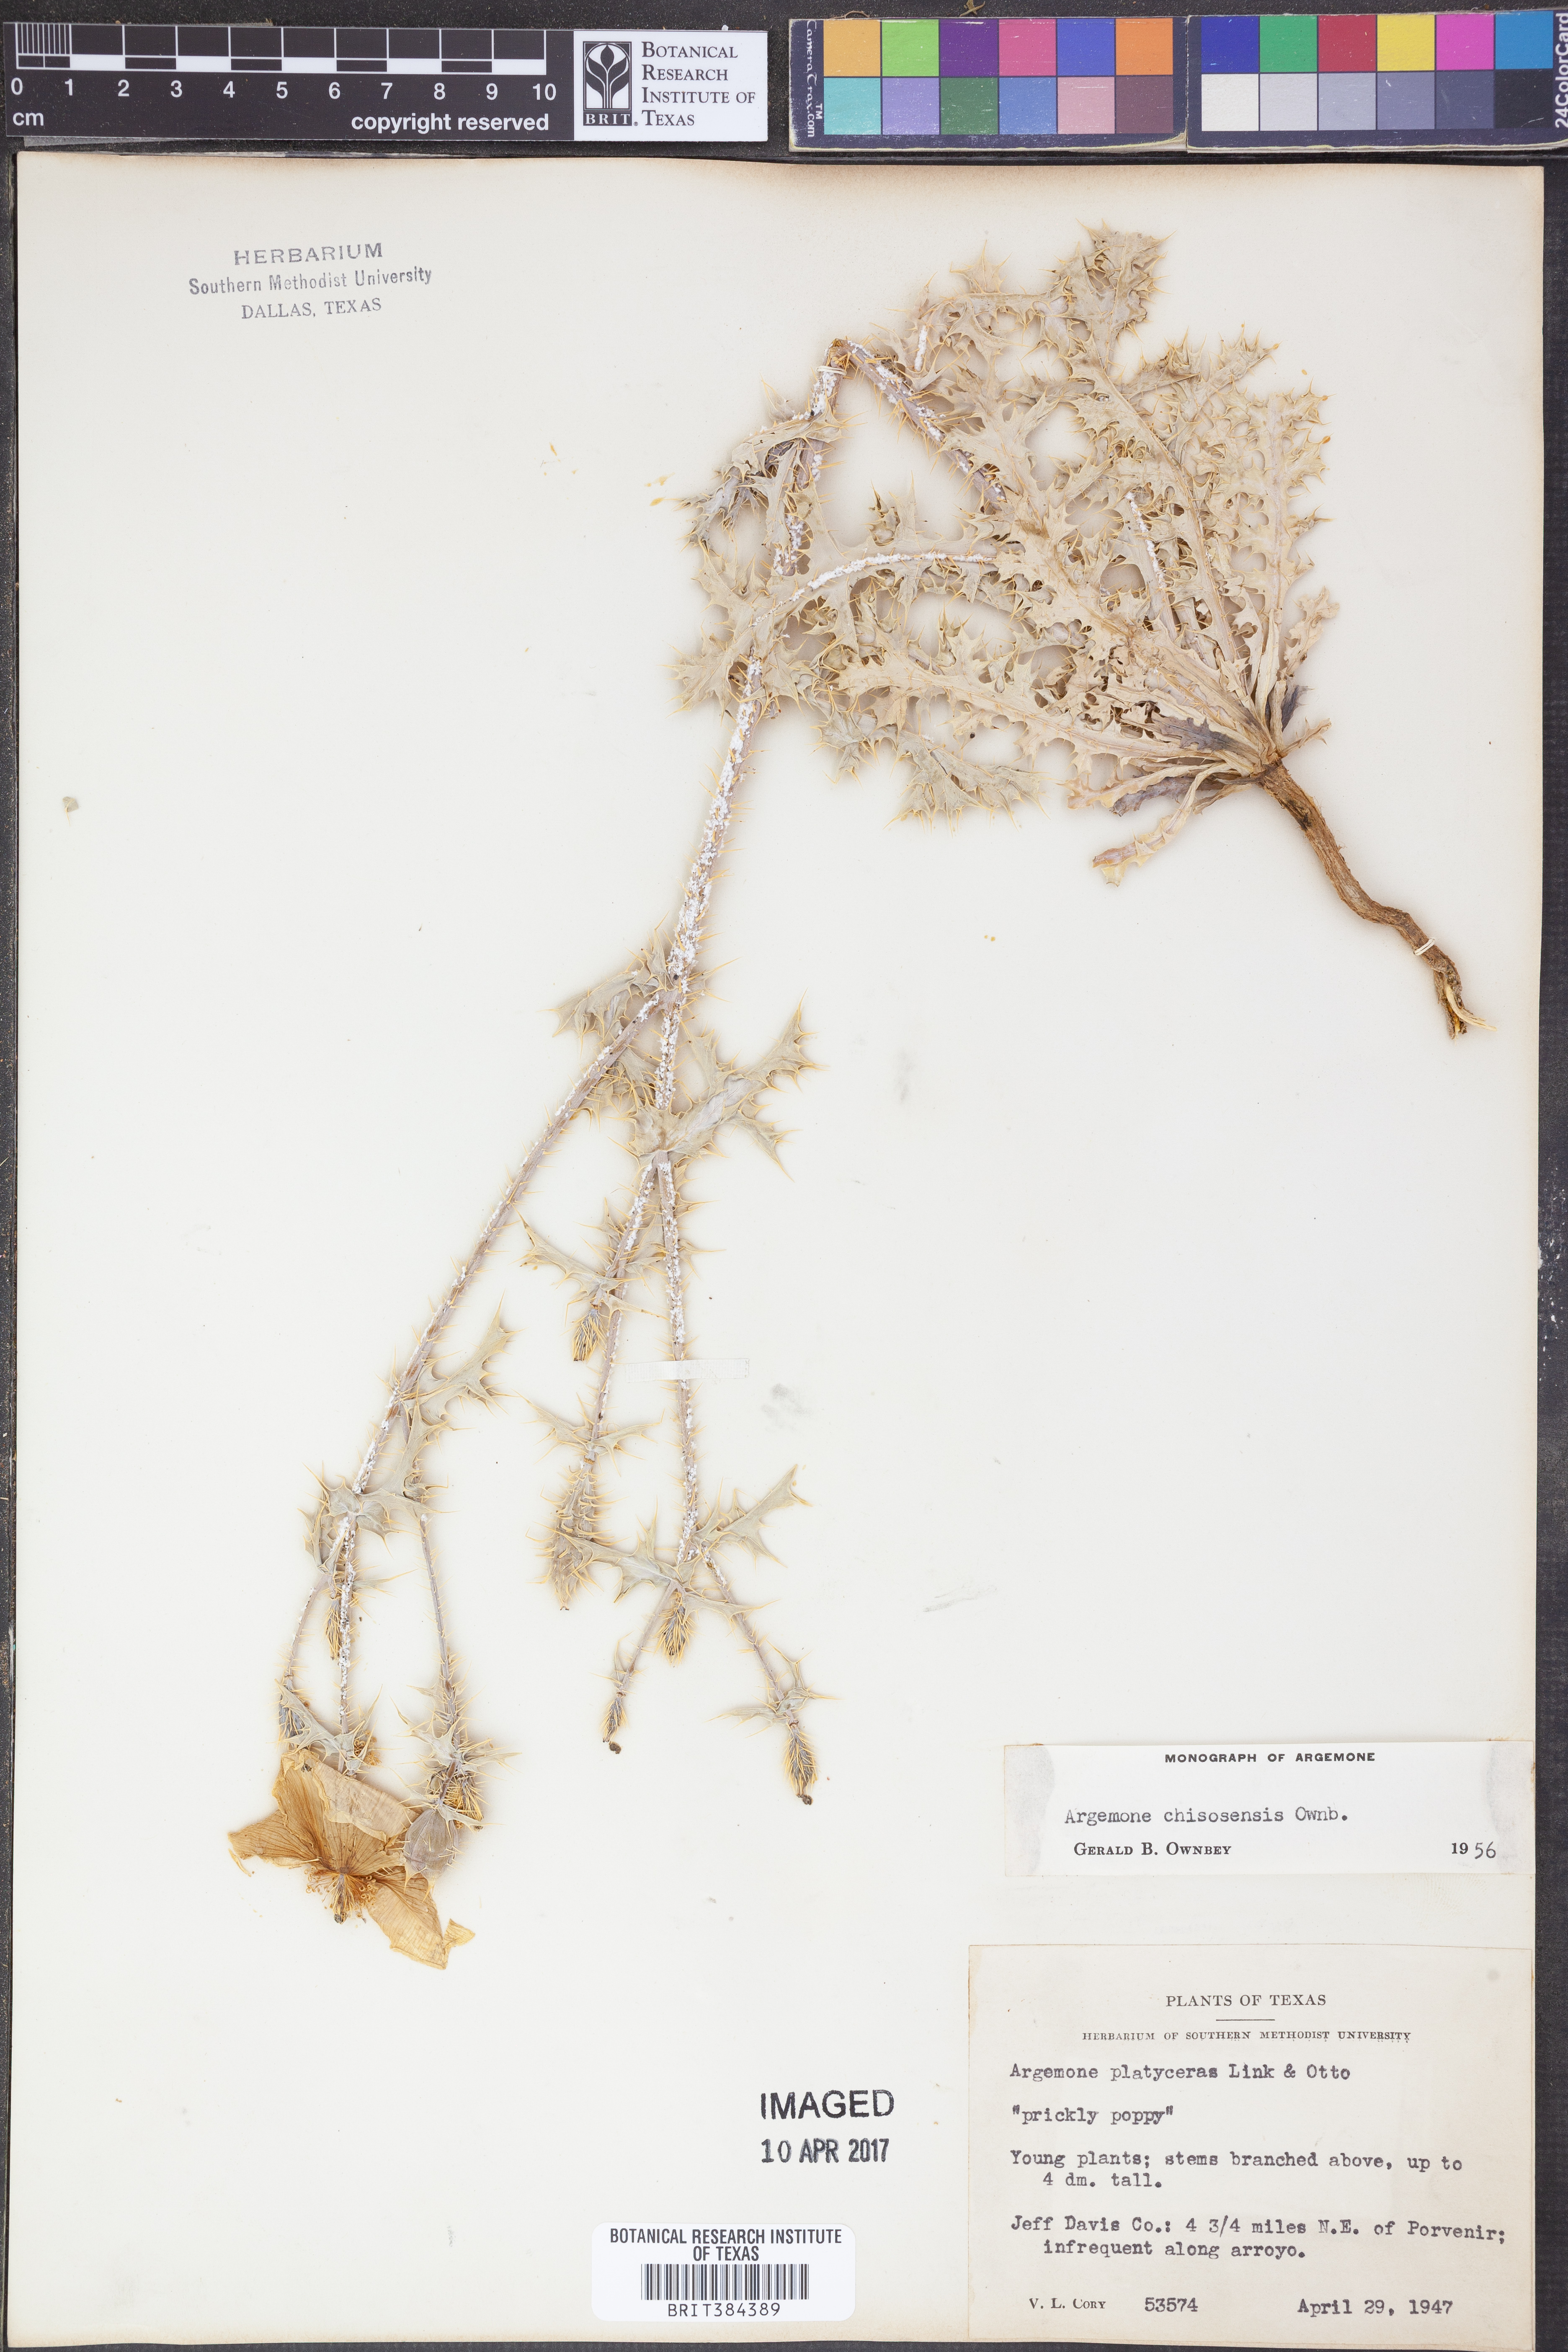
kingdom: Plantae
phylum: Tracheophyta
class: Magnoliopsida
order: Ranunculales
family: Papaveraceae
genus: Argemone
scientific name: Argemone chisosensis
